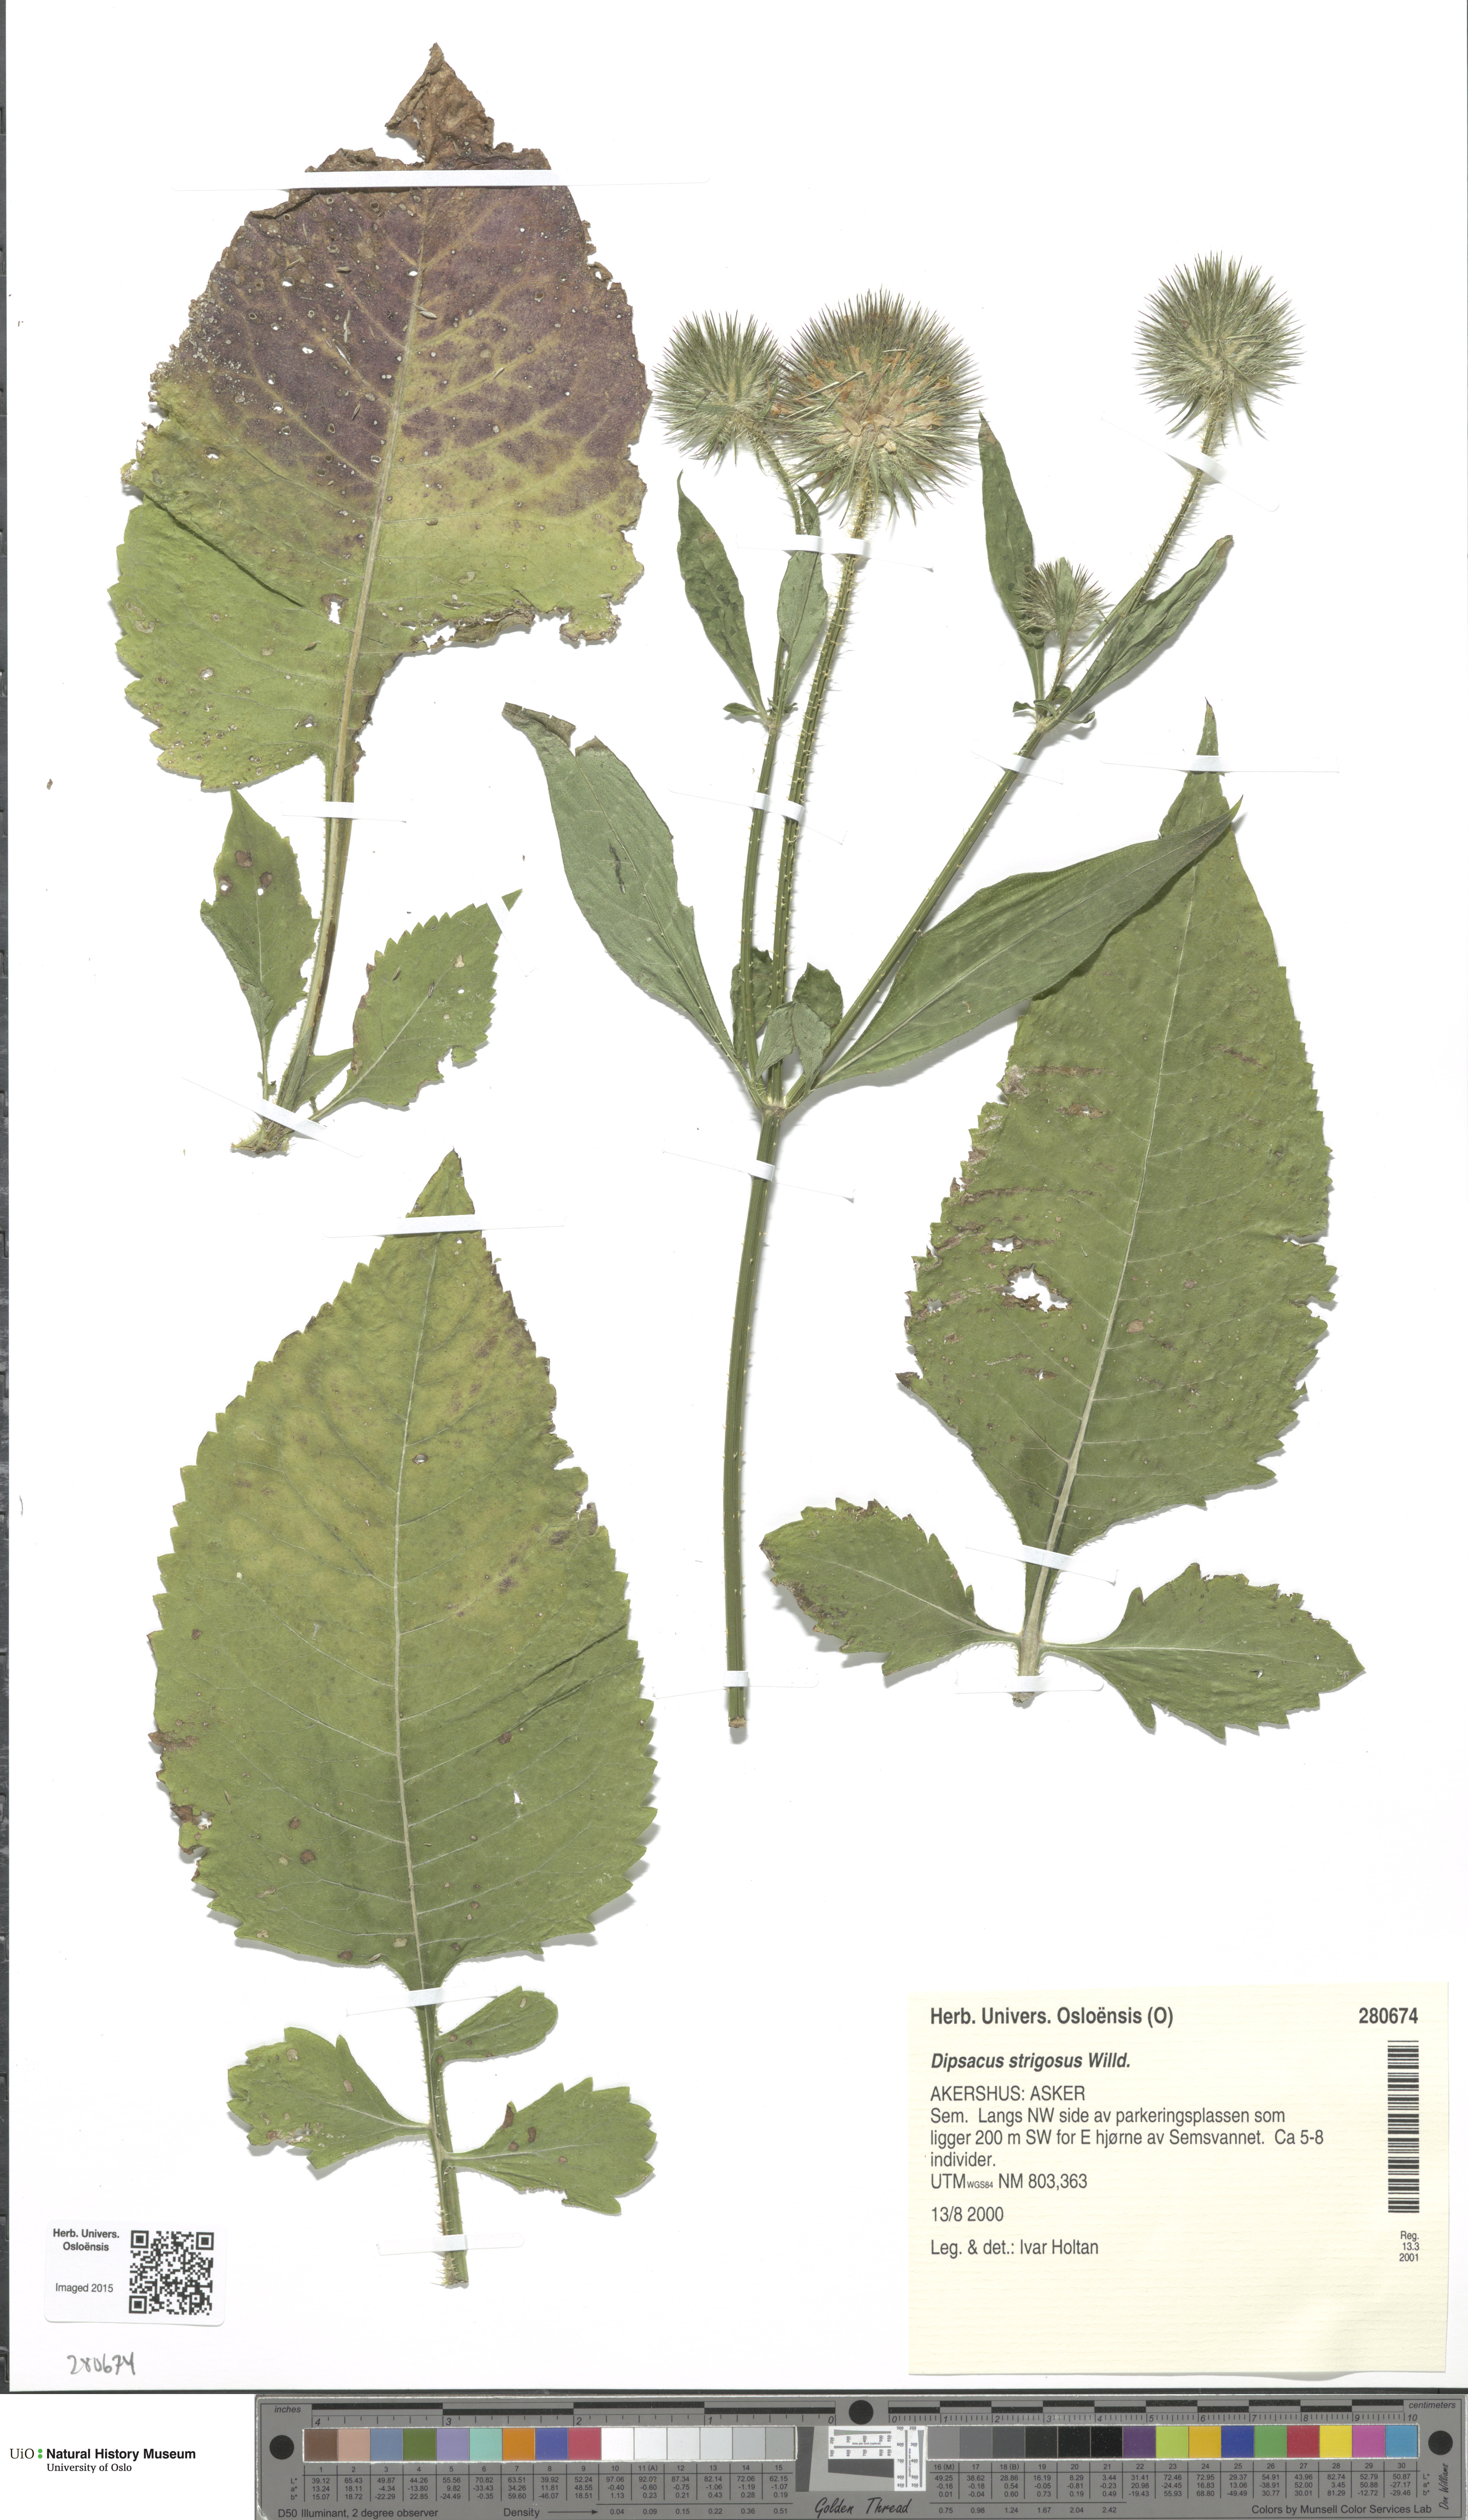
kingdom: Plantae
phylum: Tracheophyta
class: Magnoliopsida
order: Dipsacales
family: Caprifoliaceae
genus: Dipsacus
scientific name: Dipsacus strigosus
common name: Yellow-flowered teasel
